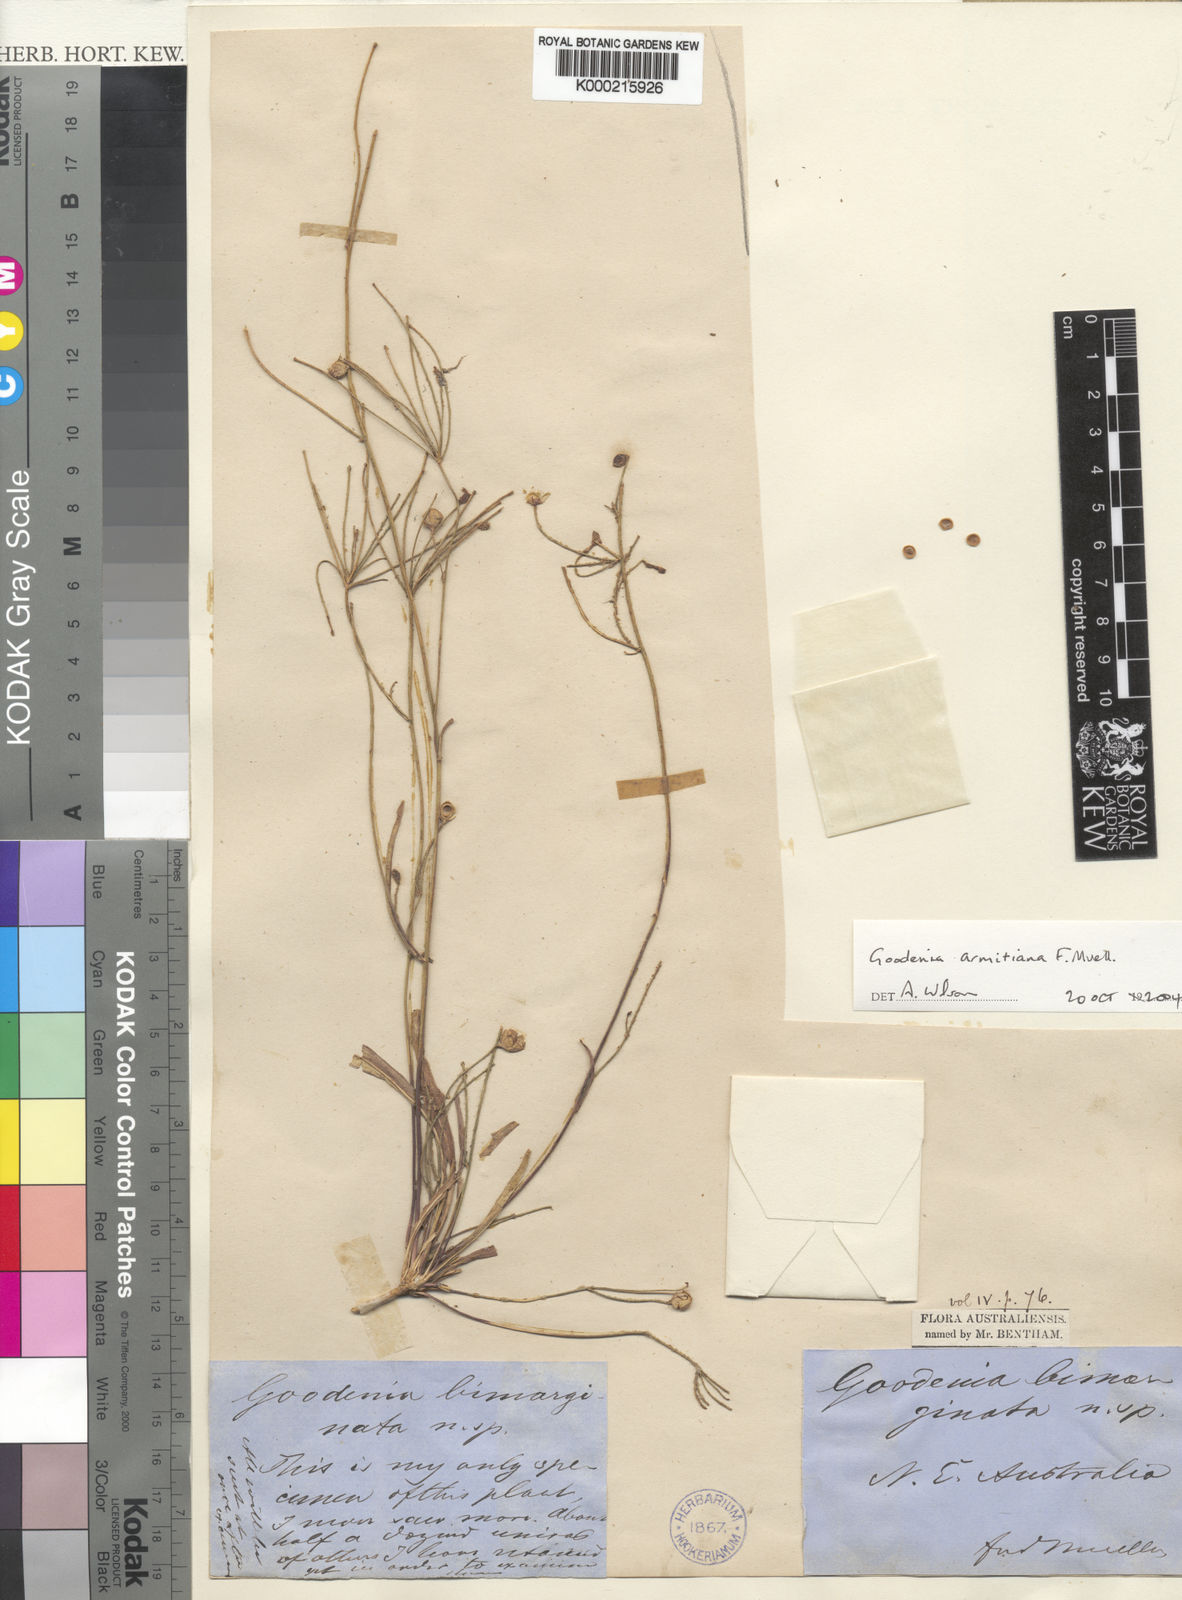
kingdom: Plantae
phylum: Tracheophyta
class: Magnoliopsida
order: Asterales
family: Goodeniaceae
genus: Goodenia
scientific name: Goodenia armitiana
